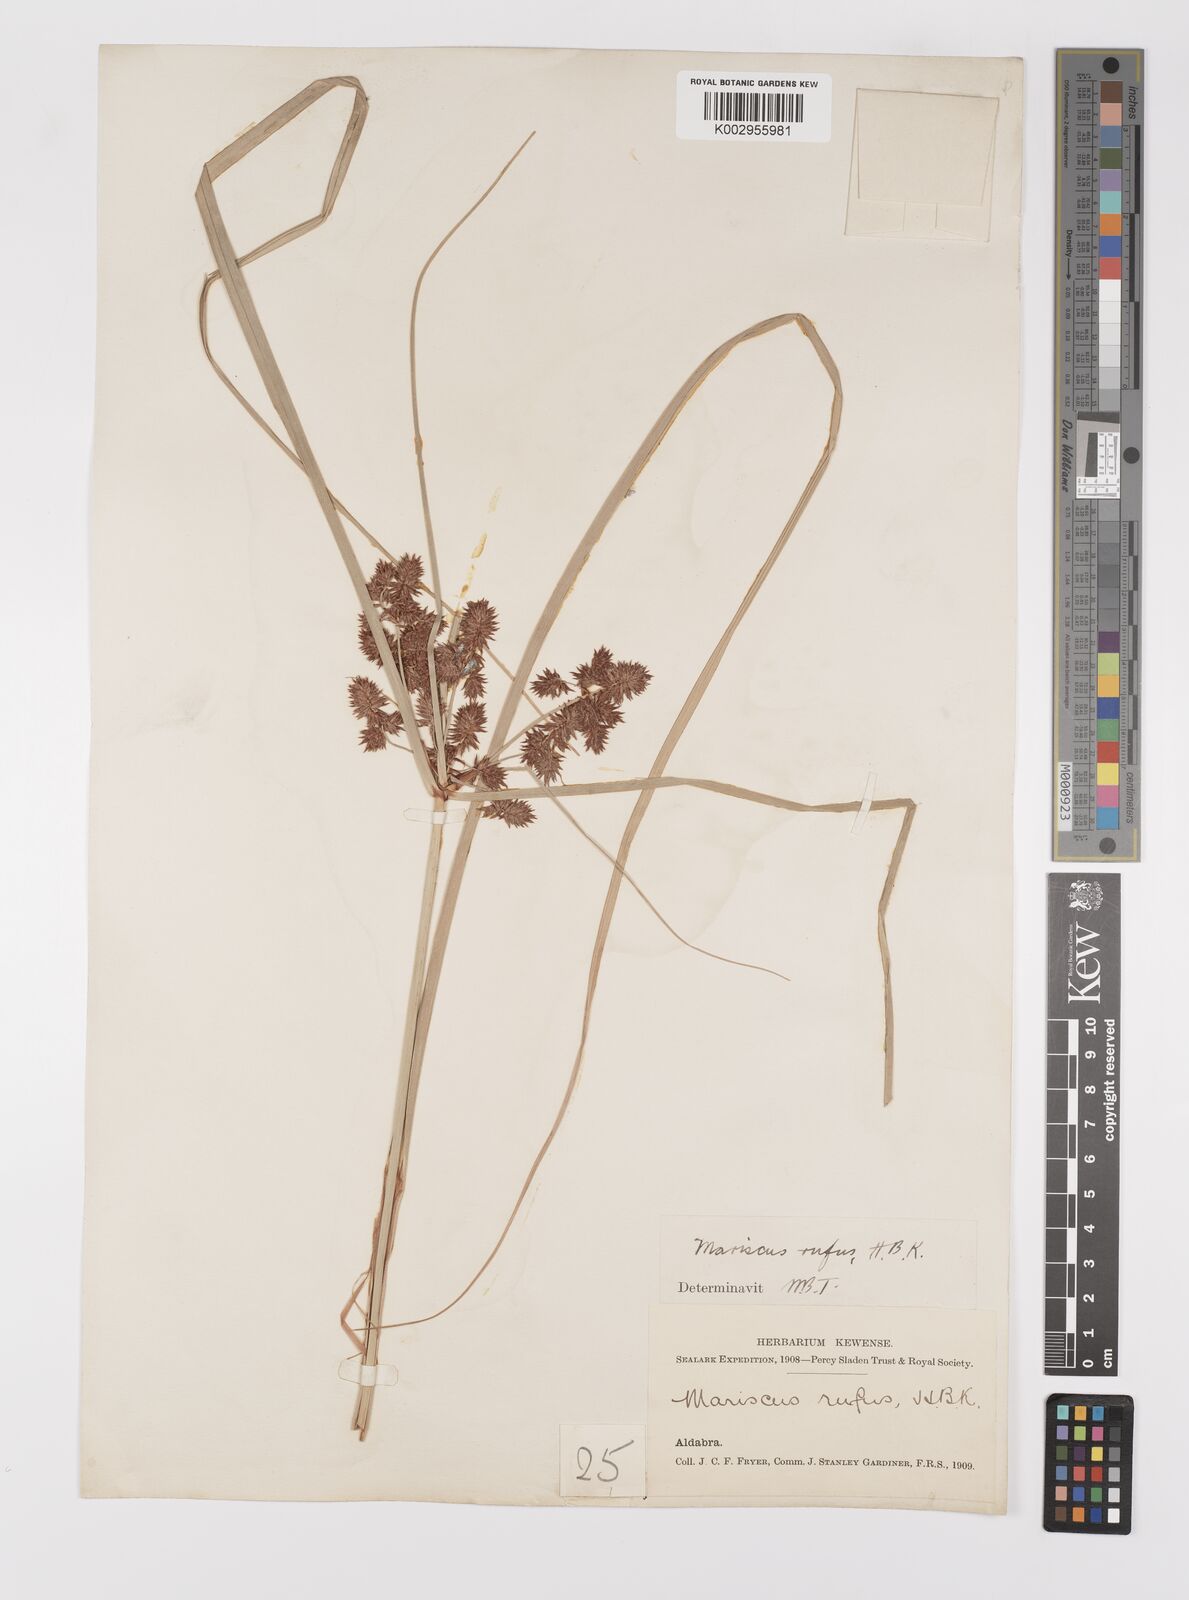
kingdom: Plantae
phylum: Tracheophyta
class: Liliopsida
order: Poales
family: Cyperaceae
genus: Cyperus
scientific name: Cyperus ligularis
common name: Swamp flat sedge
